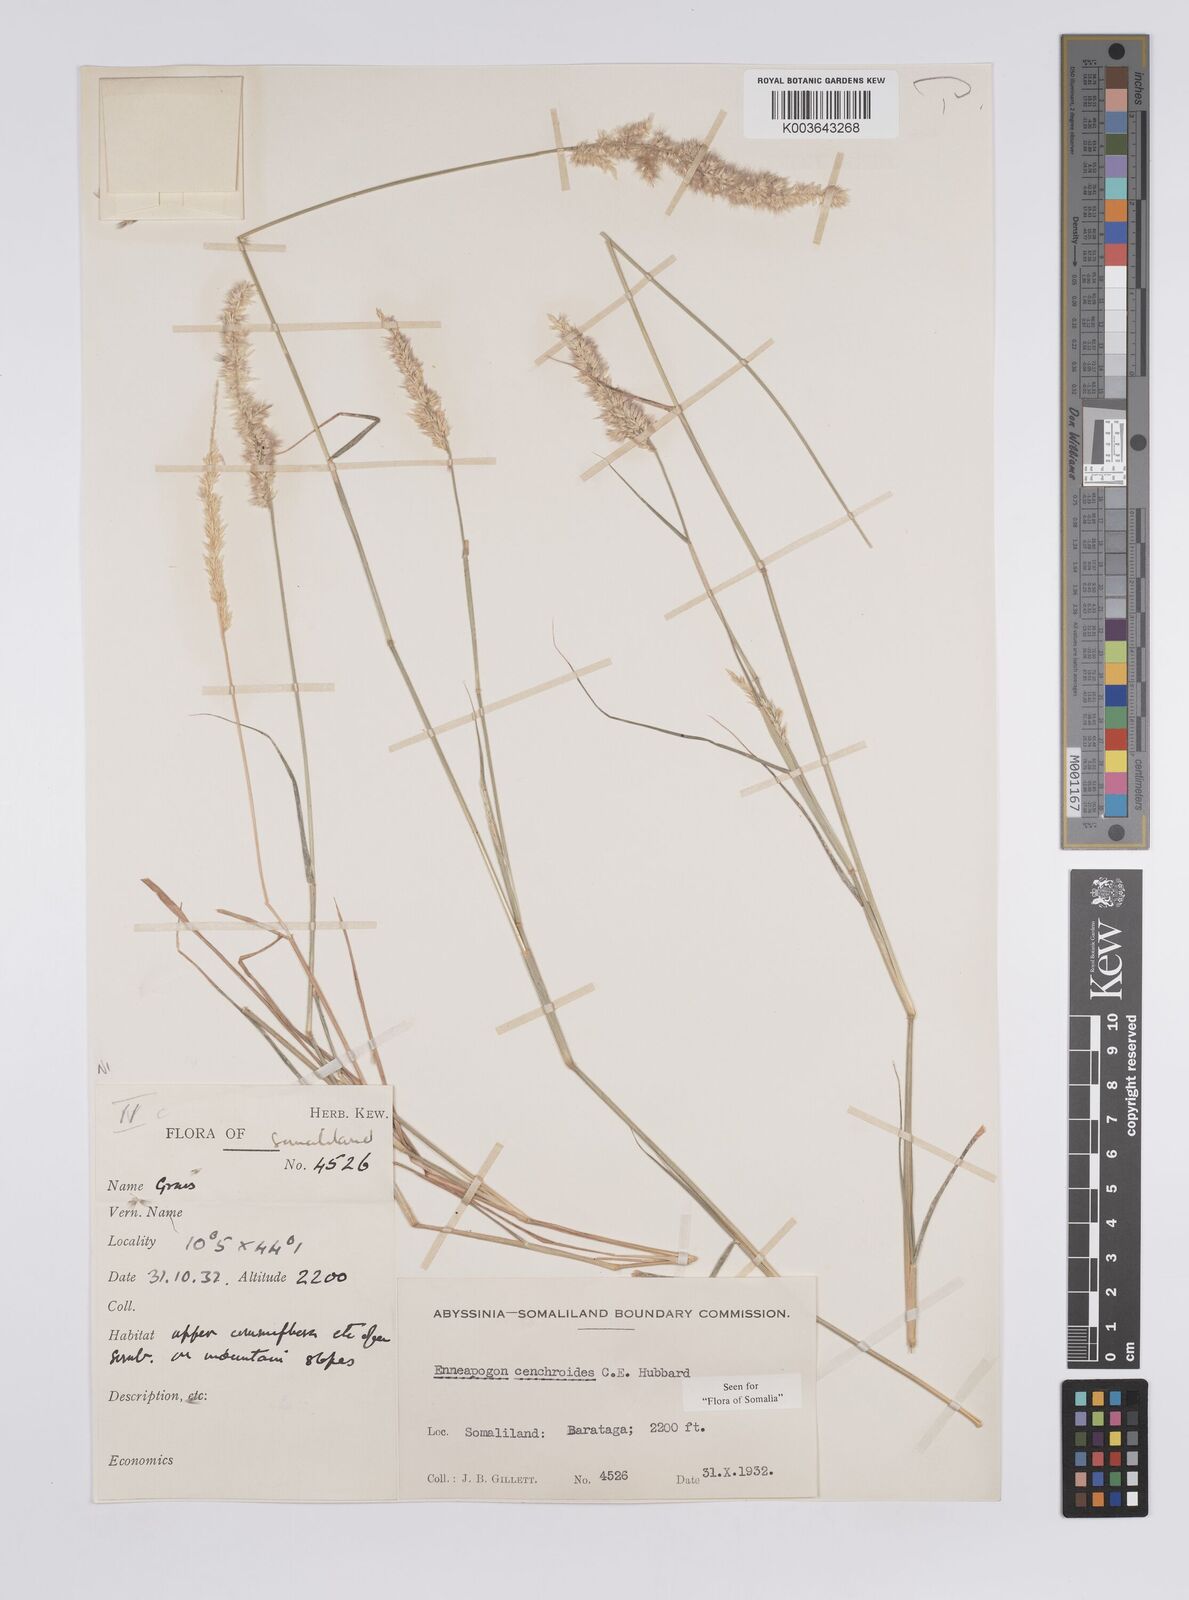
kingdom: Plantae
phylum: Tracheophyta
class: Liliopsida
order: Poales
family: Poaceae
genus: Enneapogon
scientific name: Enneapogon cenchroides
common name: Soft feather pappusgrass
